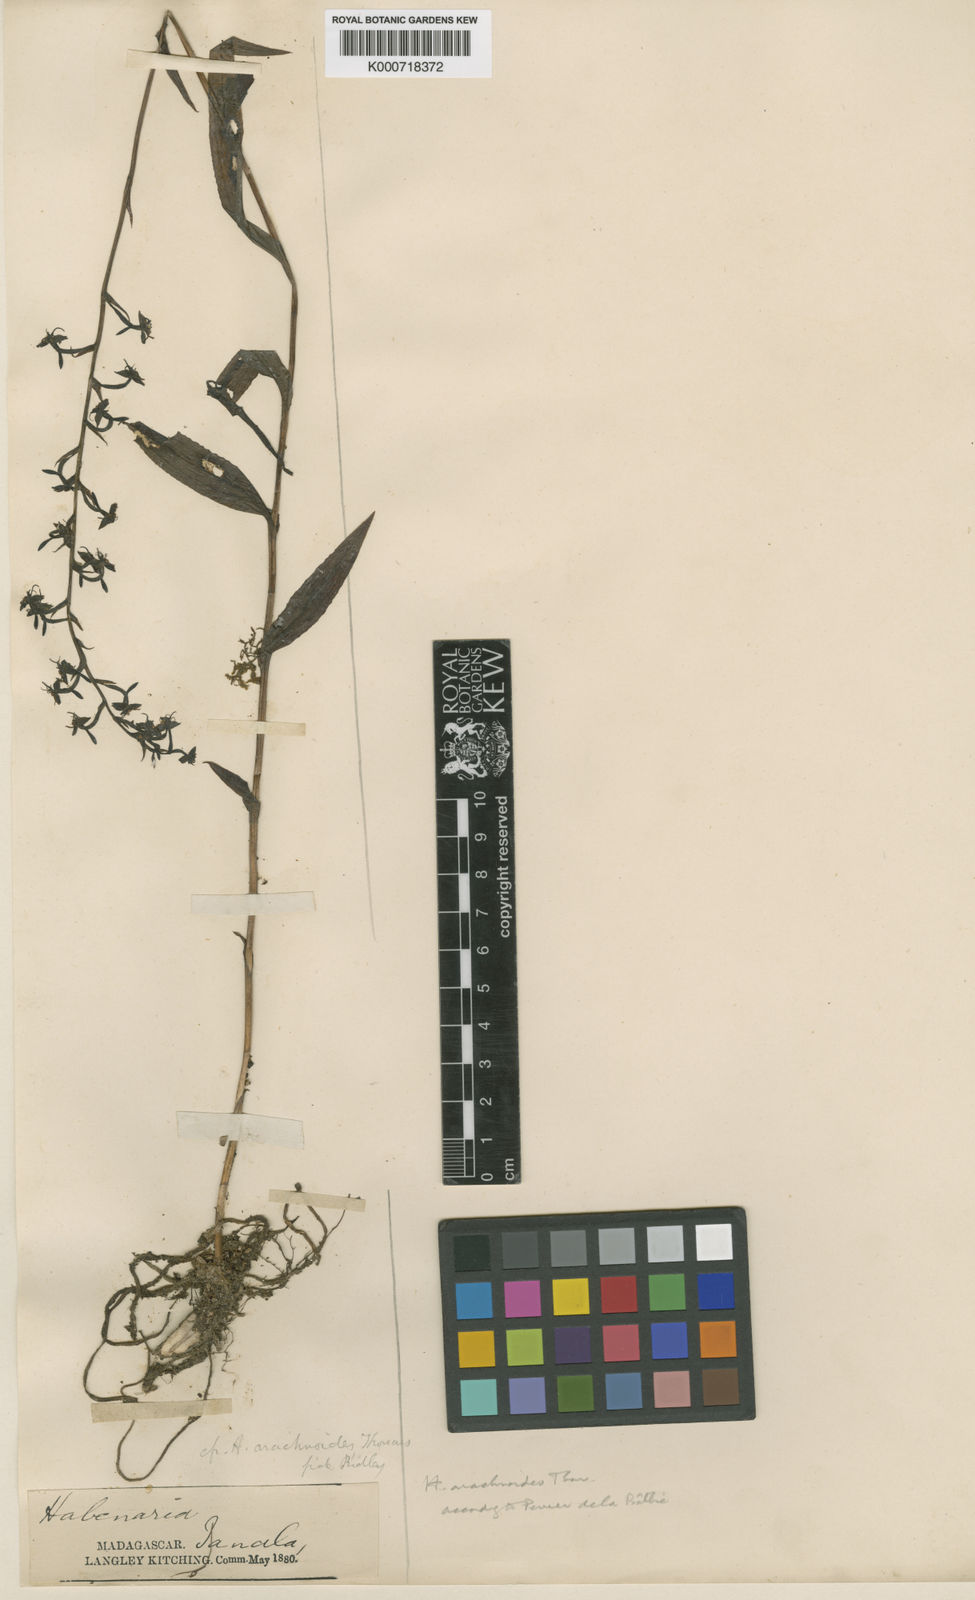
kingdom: Plantae
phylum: Tracheophyta
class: Liliopsida
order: Asparagales
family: Orchidaceae
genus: Habenaria
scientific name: Habenaria arachnoides
